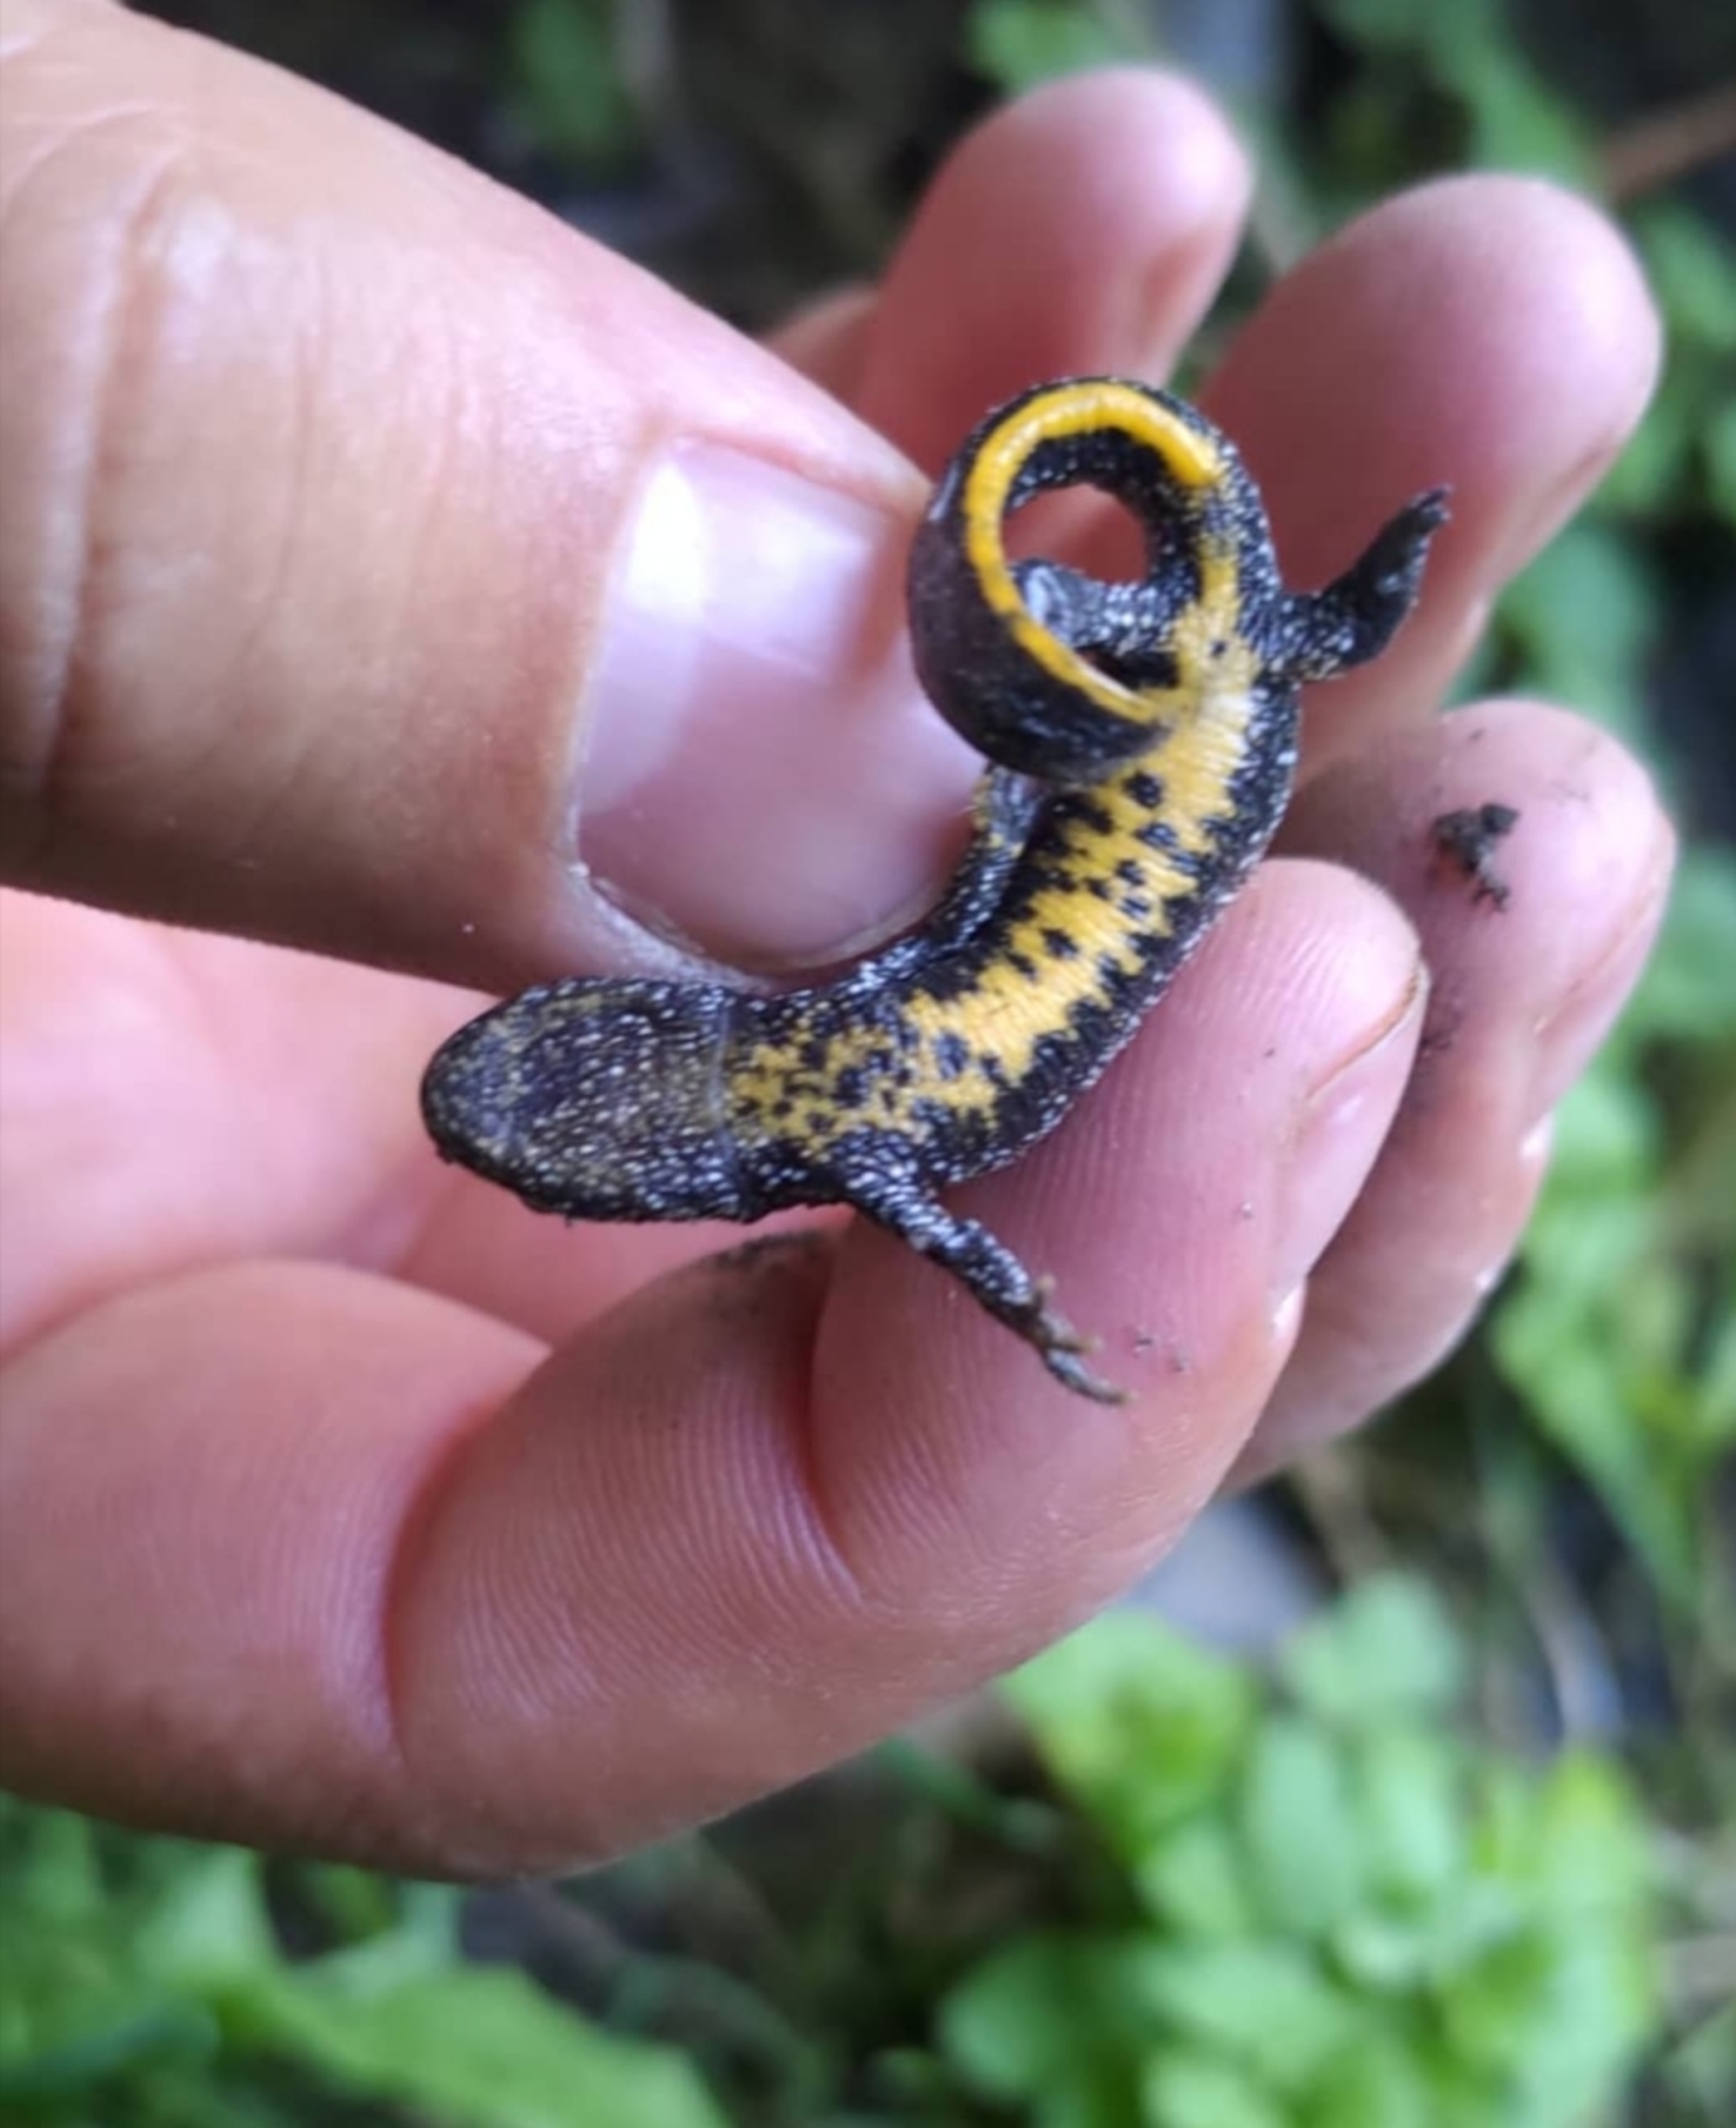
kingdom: Animalia
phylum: Chordata
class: Amphibia
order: Caudata
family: Salamandridae
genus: Triturus
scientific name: Triturus cristatus
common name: Stor vandsalamander
